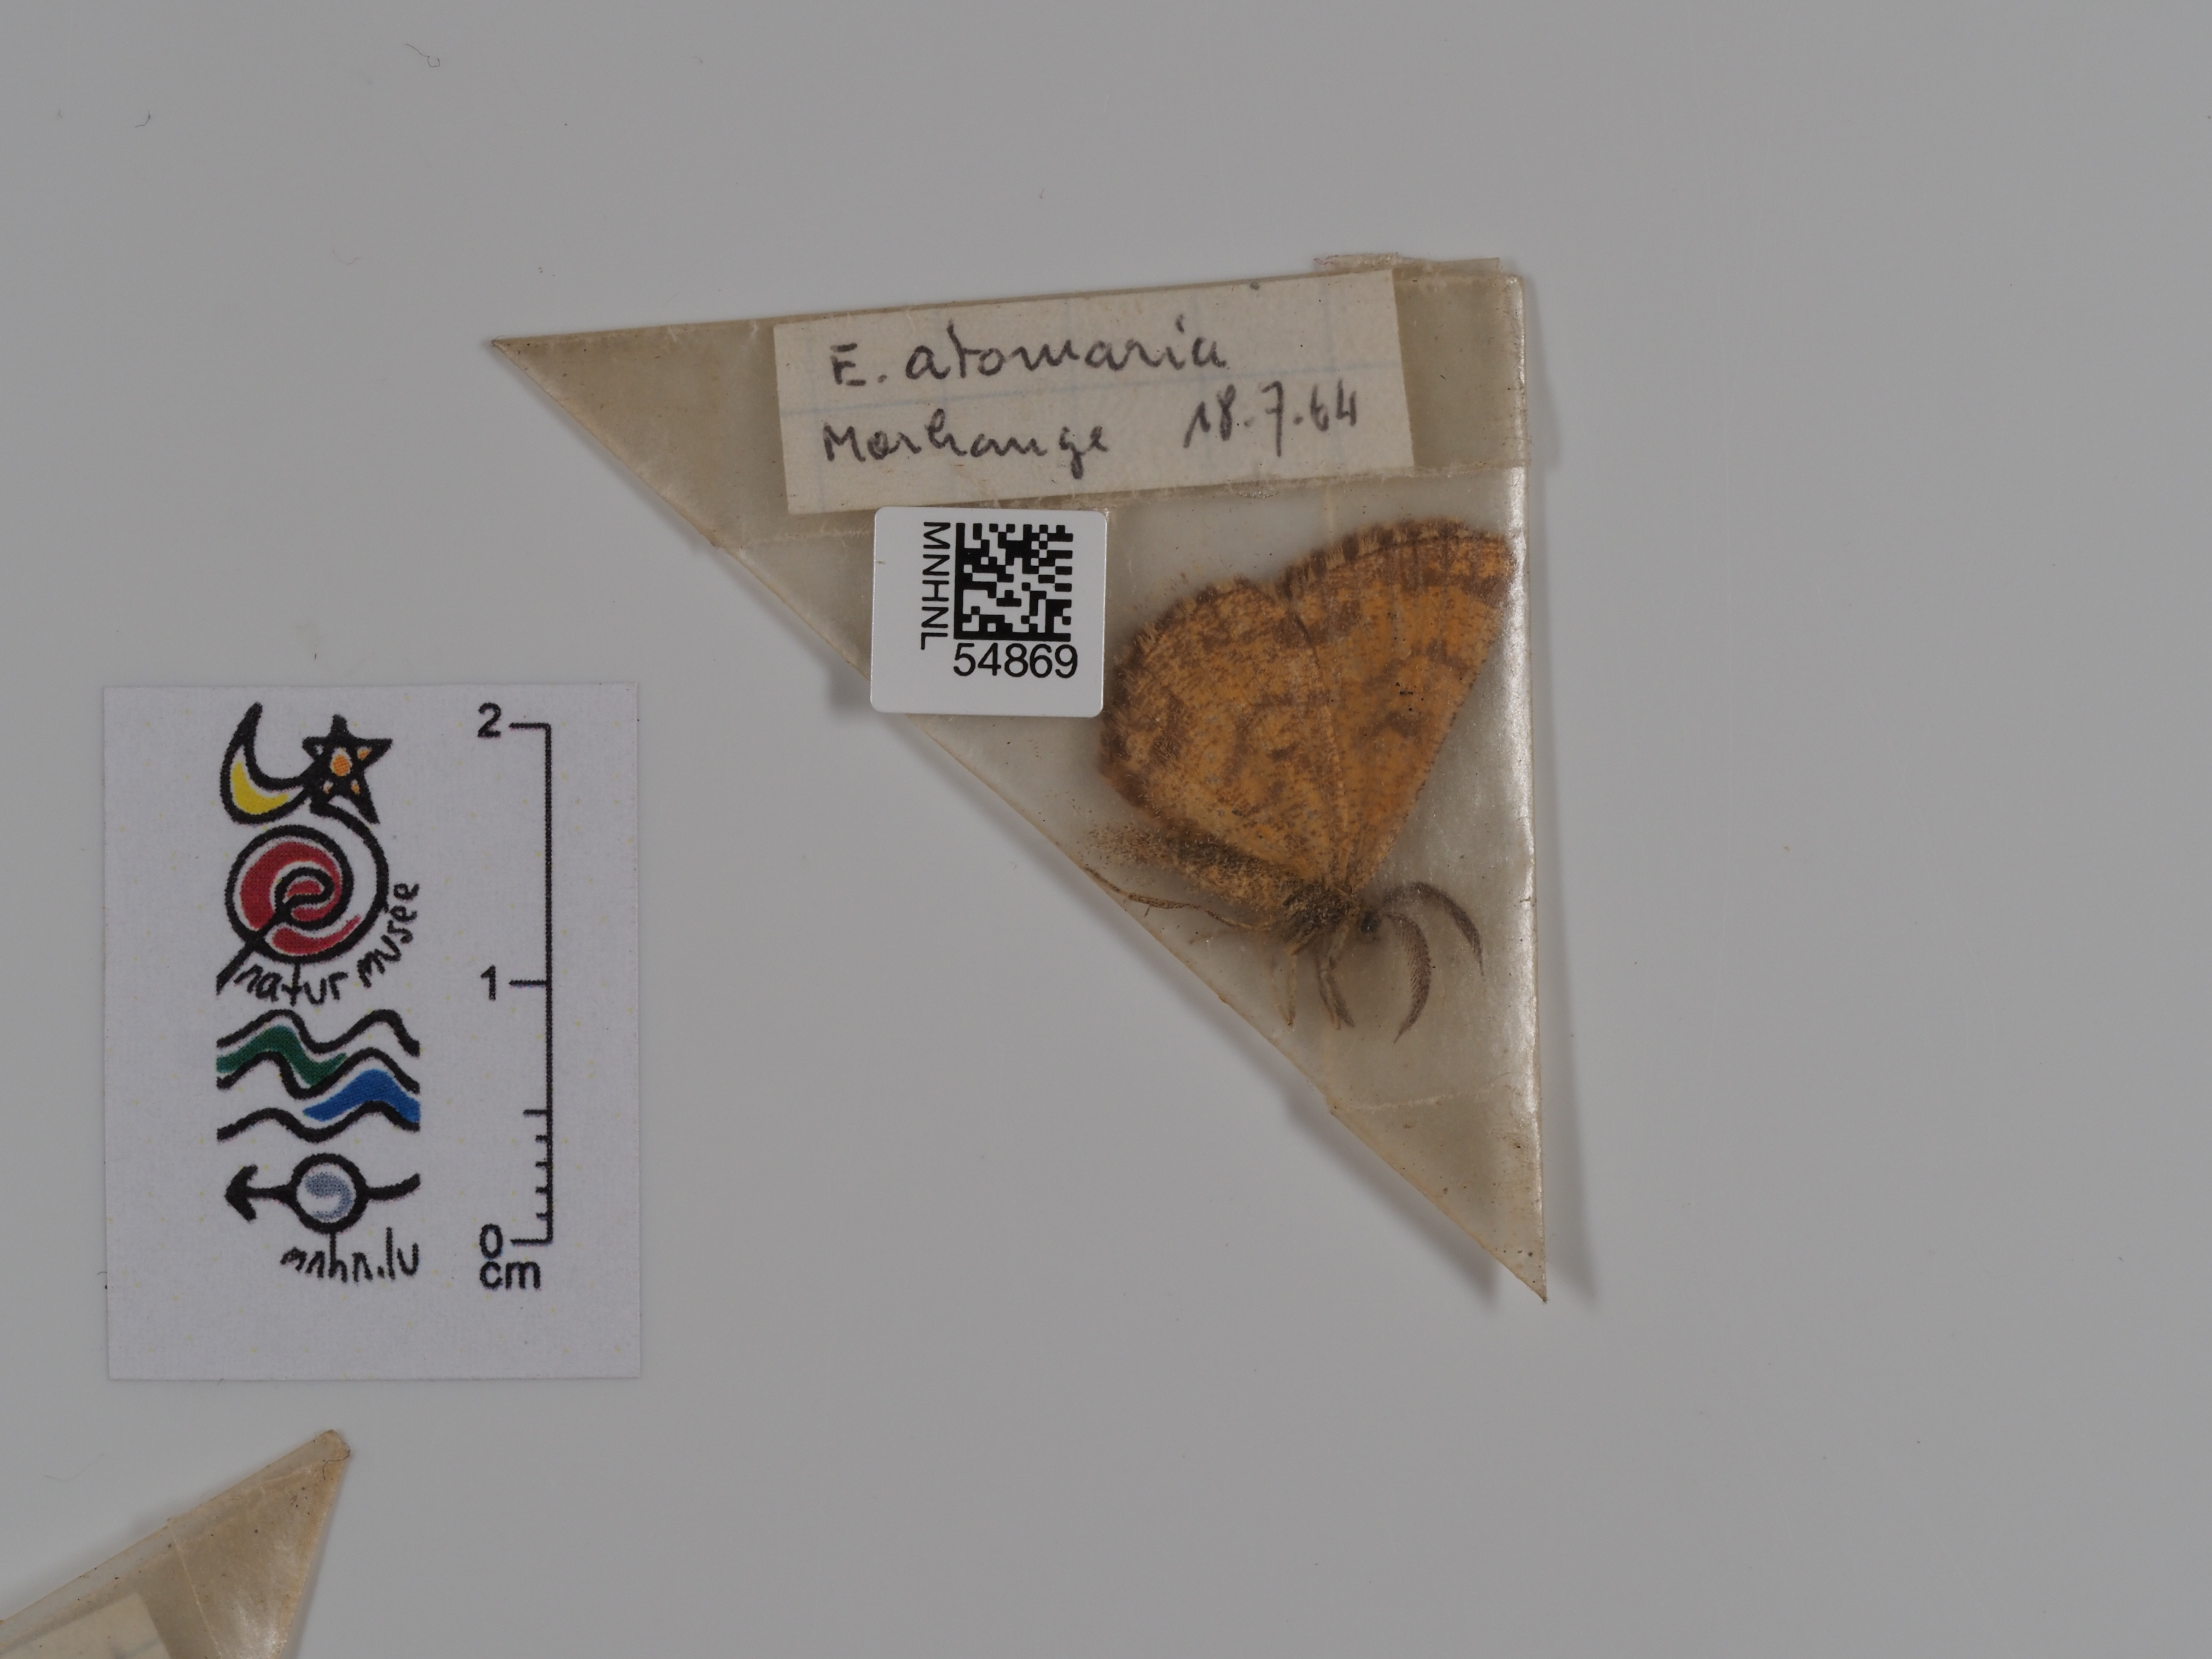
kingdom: Animalia
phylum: Arthropoda
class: Insecta
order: Lepidoptera
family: Geometridae
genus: Ematurga
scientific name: Ematurga atomaria
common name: Common heath
